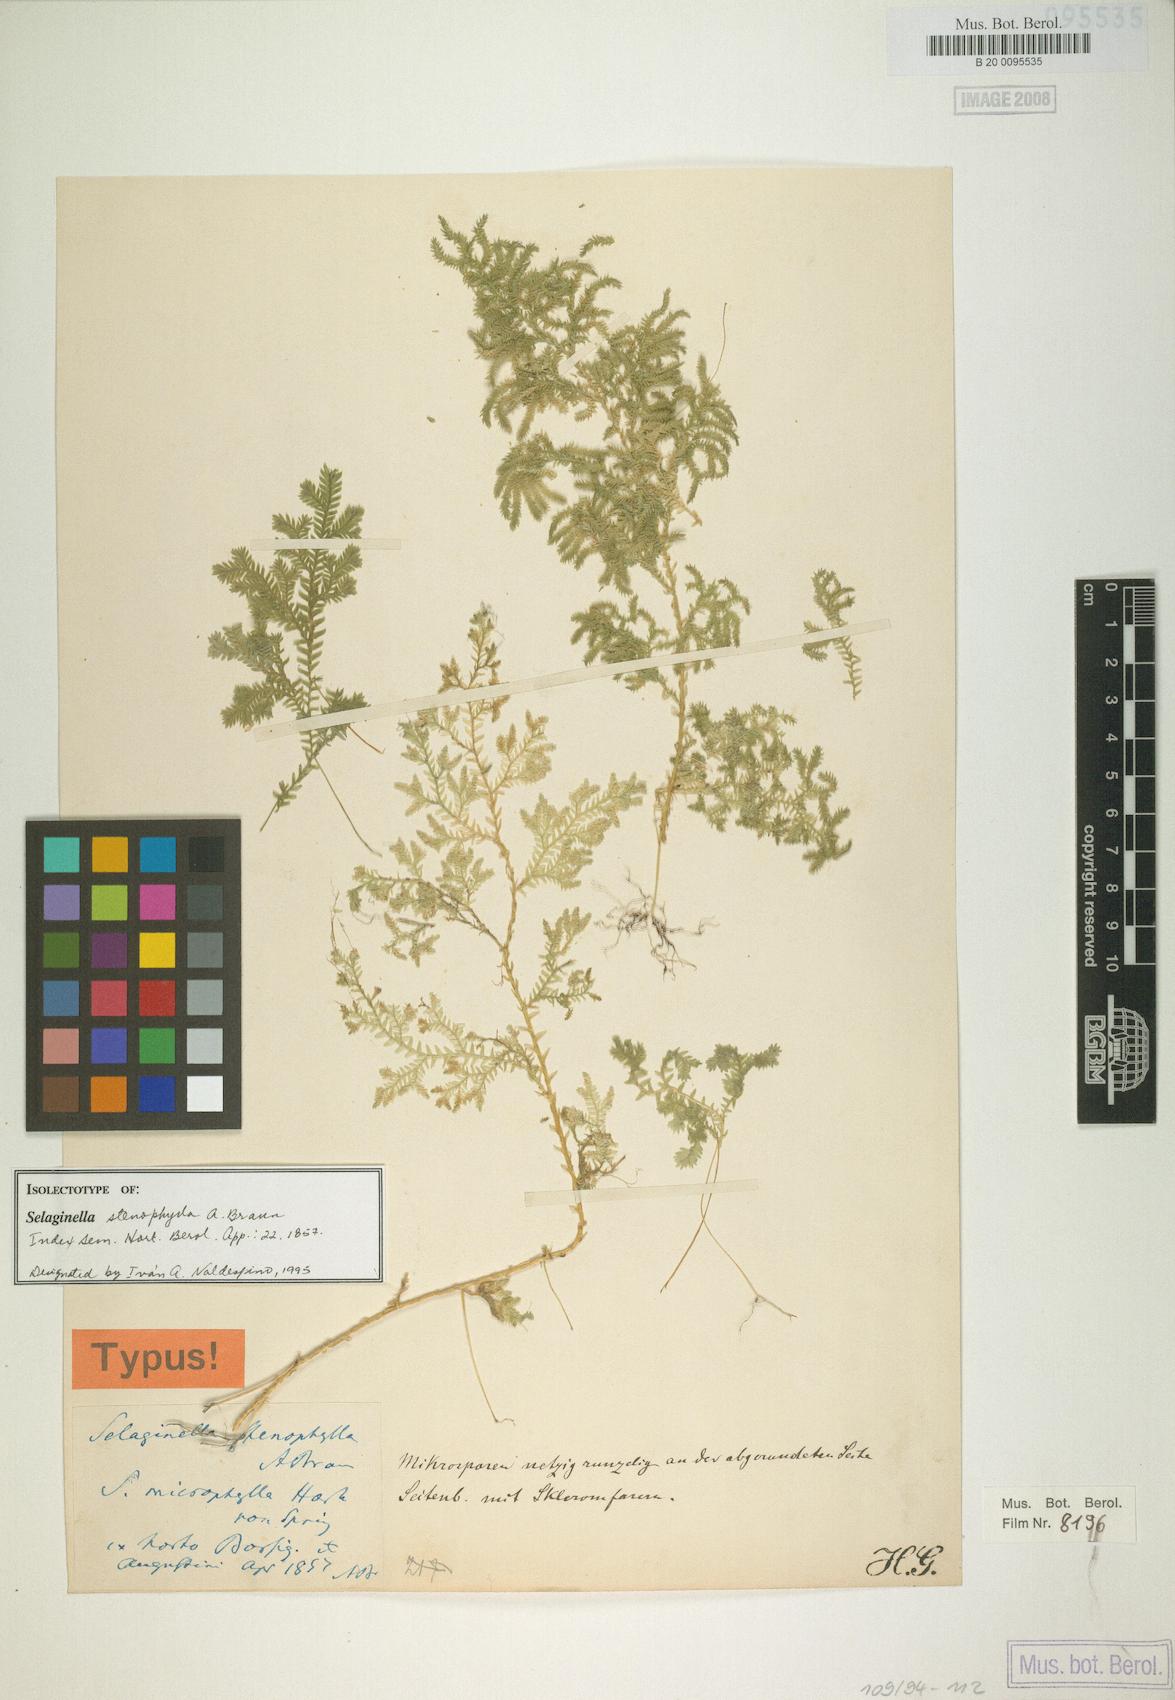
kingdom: Plantae
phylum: Tracheophyta
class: Lycopodiopsida
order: Selaginellales
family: Selaginellaceae
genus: Selaginella
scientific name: Selaginella stenophylla
